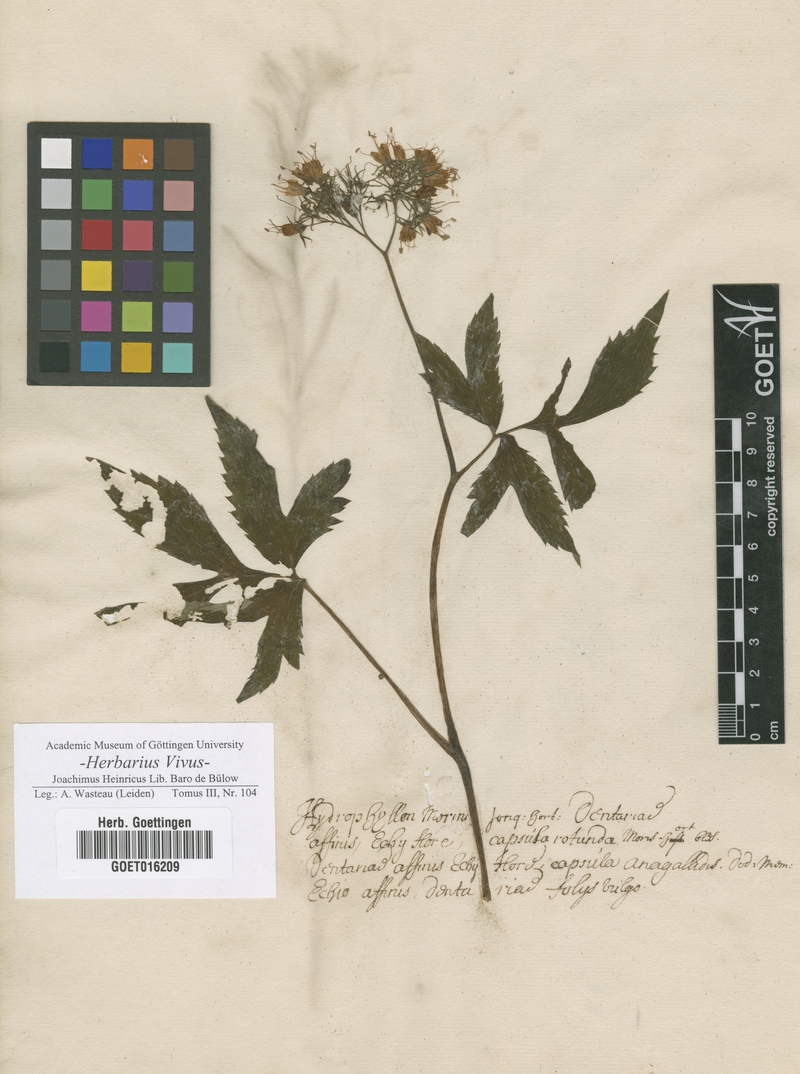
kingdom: Plantae
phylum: Tracheophyta
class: Magnoliopsida
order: Boraginales
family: Hydrophyllaceae
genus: Hydrophyllum
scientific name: Hydrophyllum virginianum
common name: Virginia waterleaf
